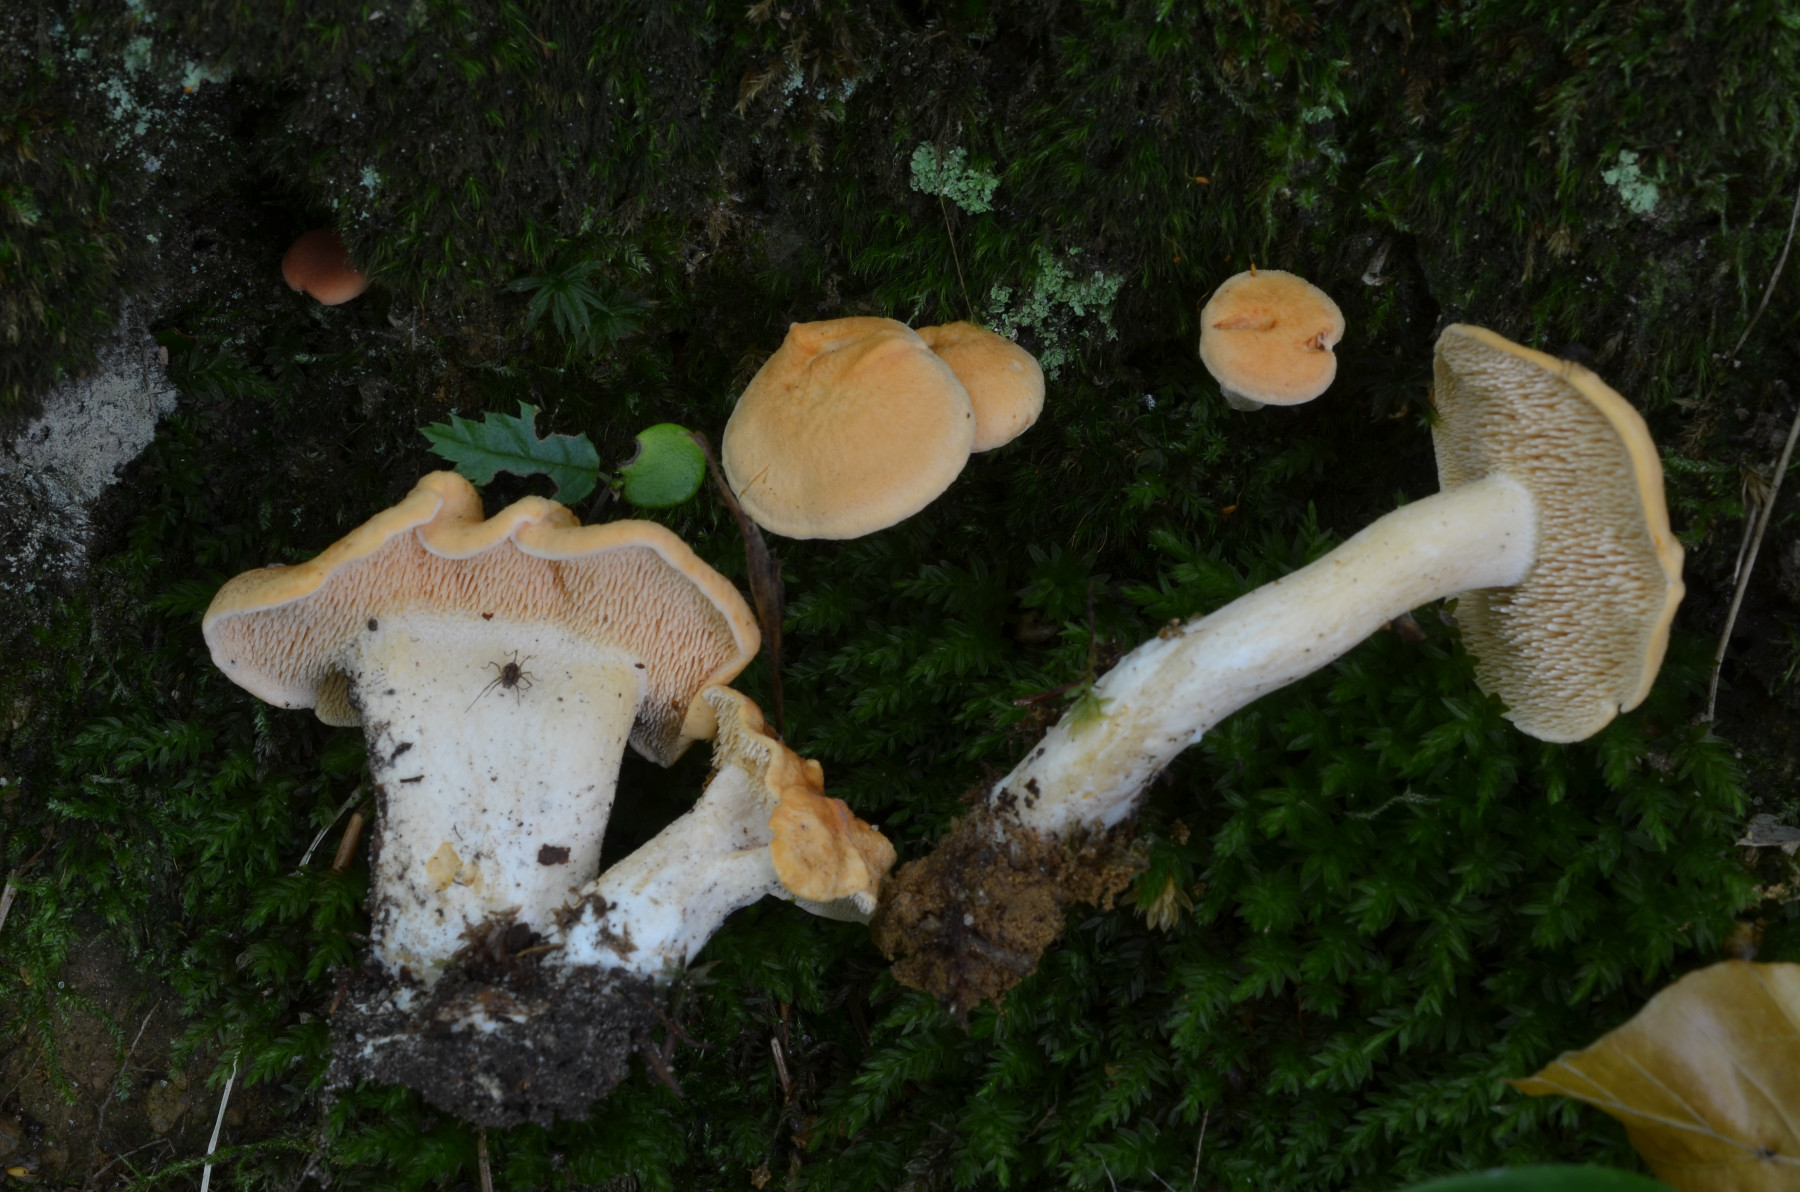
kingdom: Fungi
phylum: Basidiomycota
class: Agaricomycetes
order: Cantharellales
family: Hydnaceae
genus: Hydnum
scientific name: Hydnum ellipsosporum
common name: tandet pigsvamp
